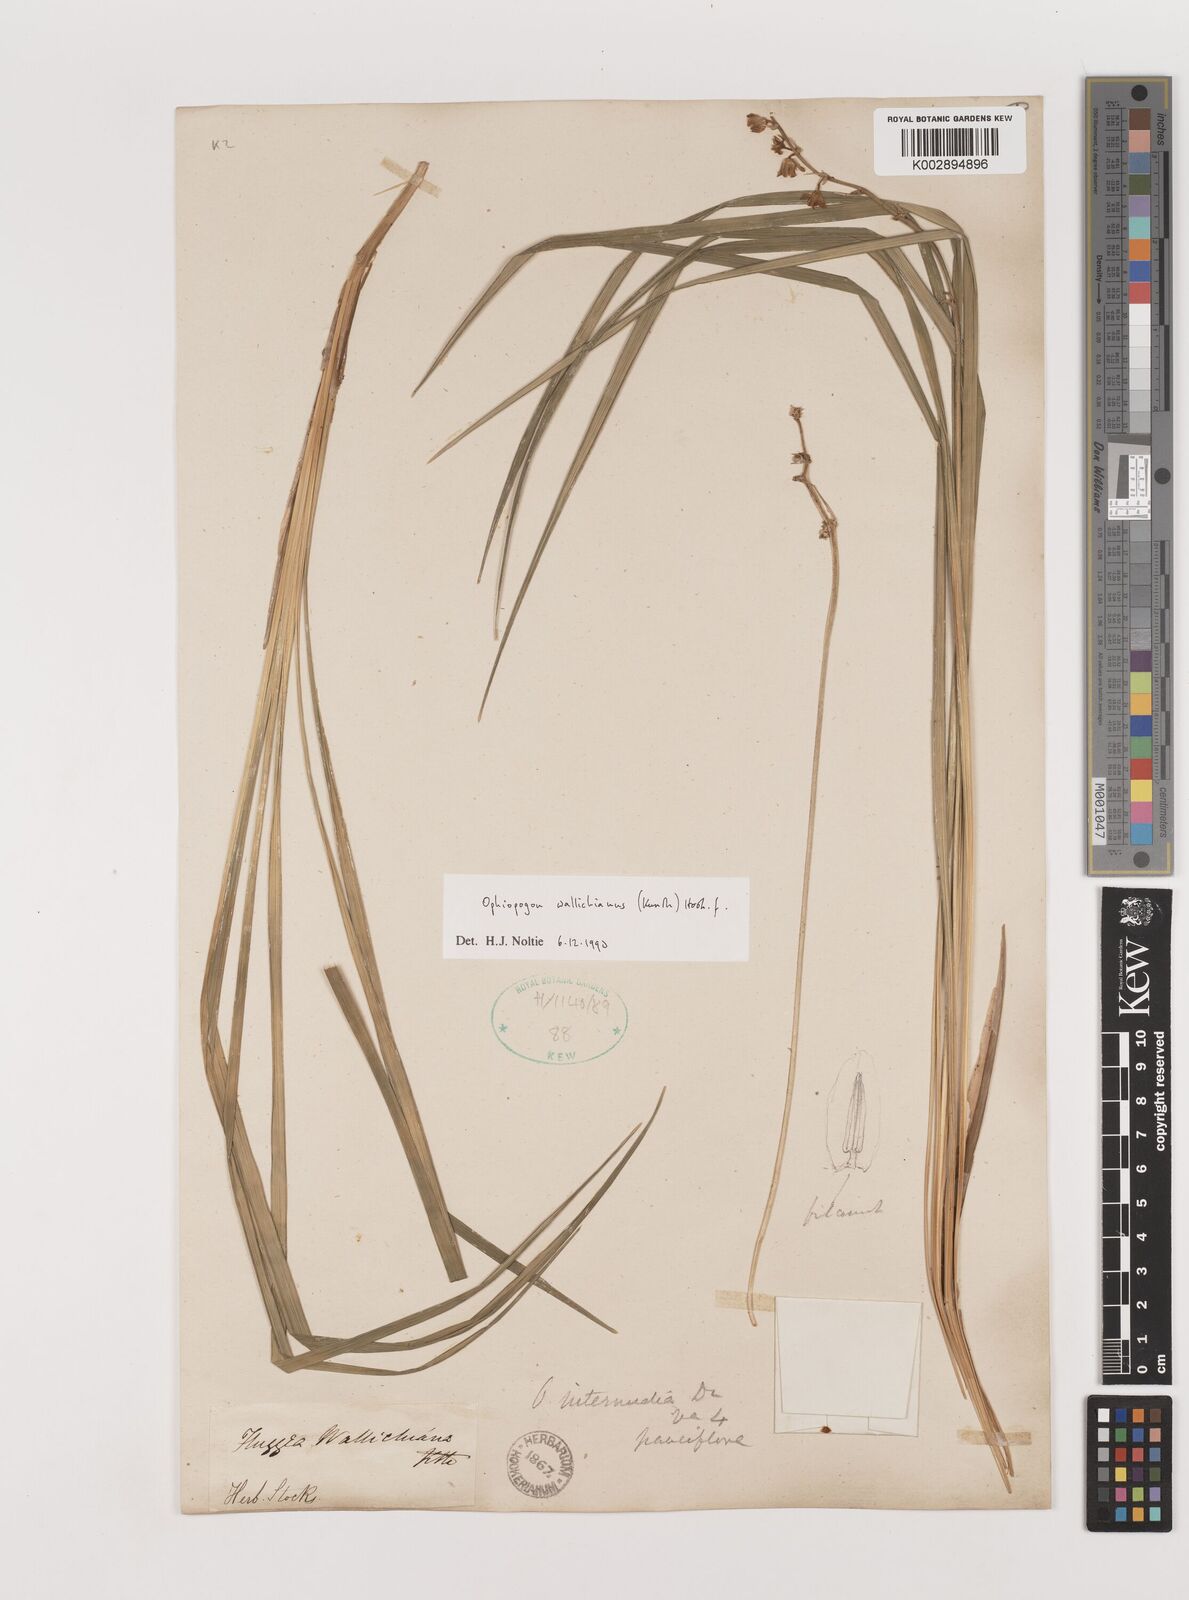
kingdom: Plantae
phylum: Tracheophyta
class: Liliopsida
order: Asparagales
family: Asparagaceae
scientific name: Asparagaceae
